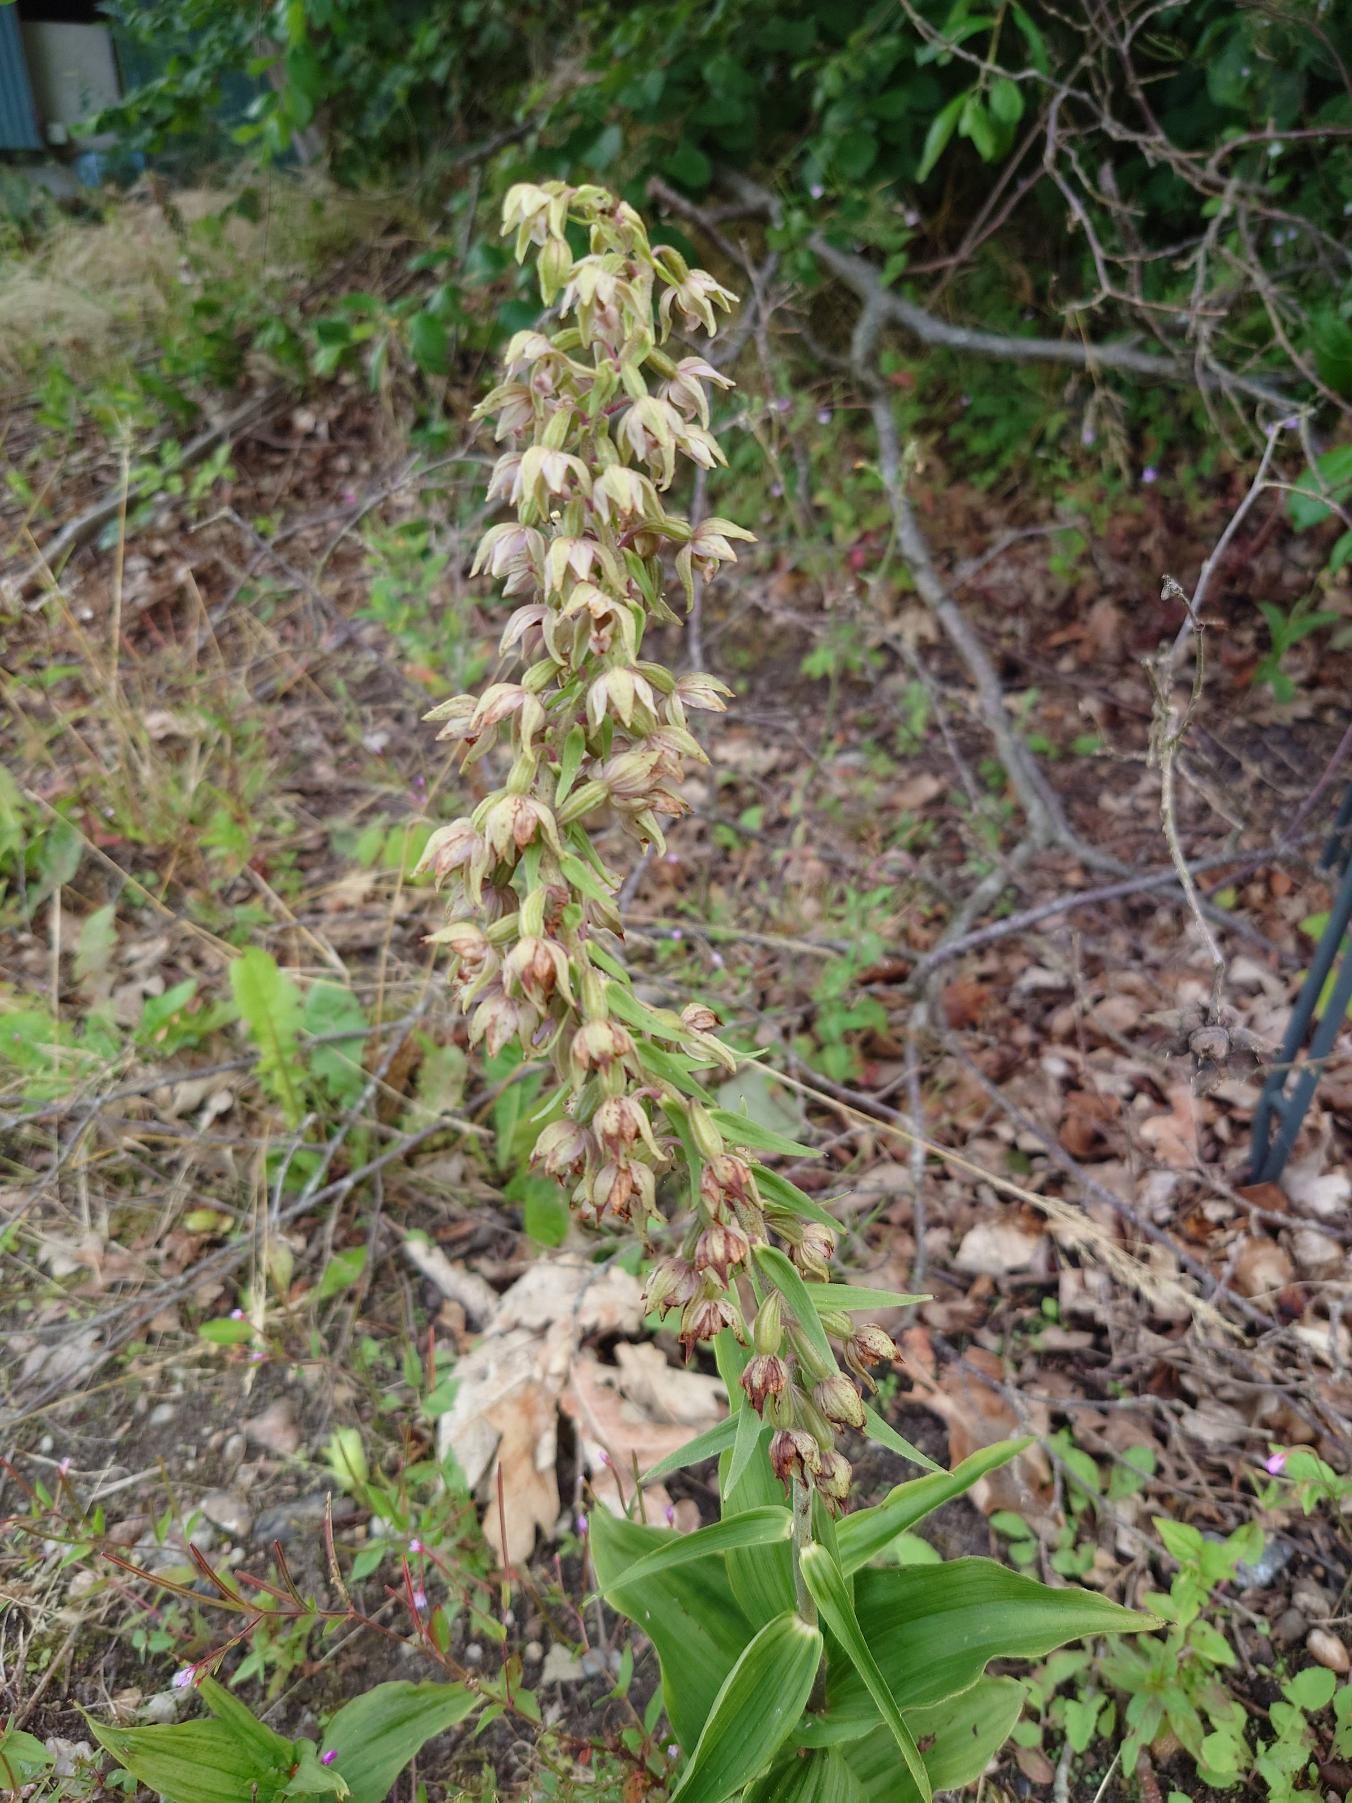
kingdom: Plantae
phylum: Tracheophyta
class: Liliopsida
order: Asparagales
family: Orchidaceae
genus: Epipactis
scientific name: Epipactis helleborine
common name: Skov-hullæbe (underart)
